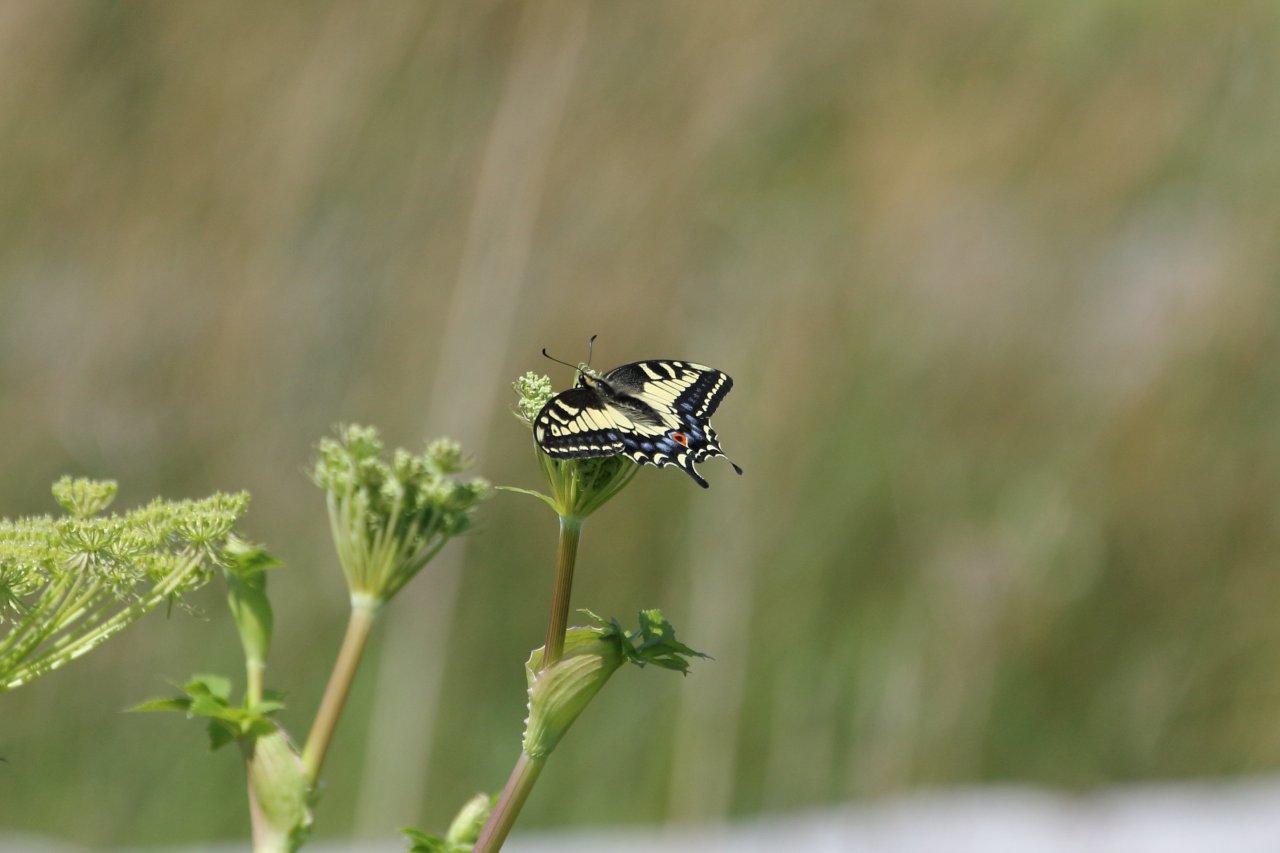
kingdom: Animalia
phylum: Arthropoda
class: Insecta
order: Lepidoptera
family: Papilionidae
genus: Papilio
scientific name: Papilio zelicaon
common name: Anise Swallowtail
